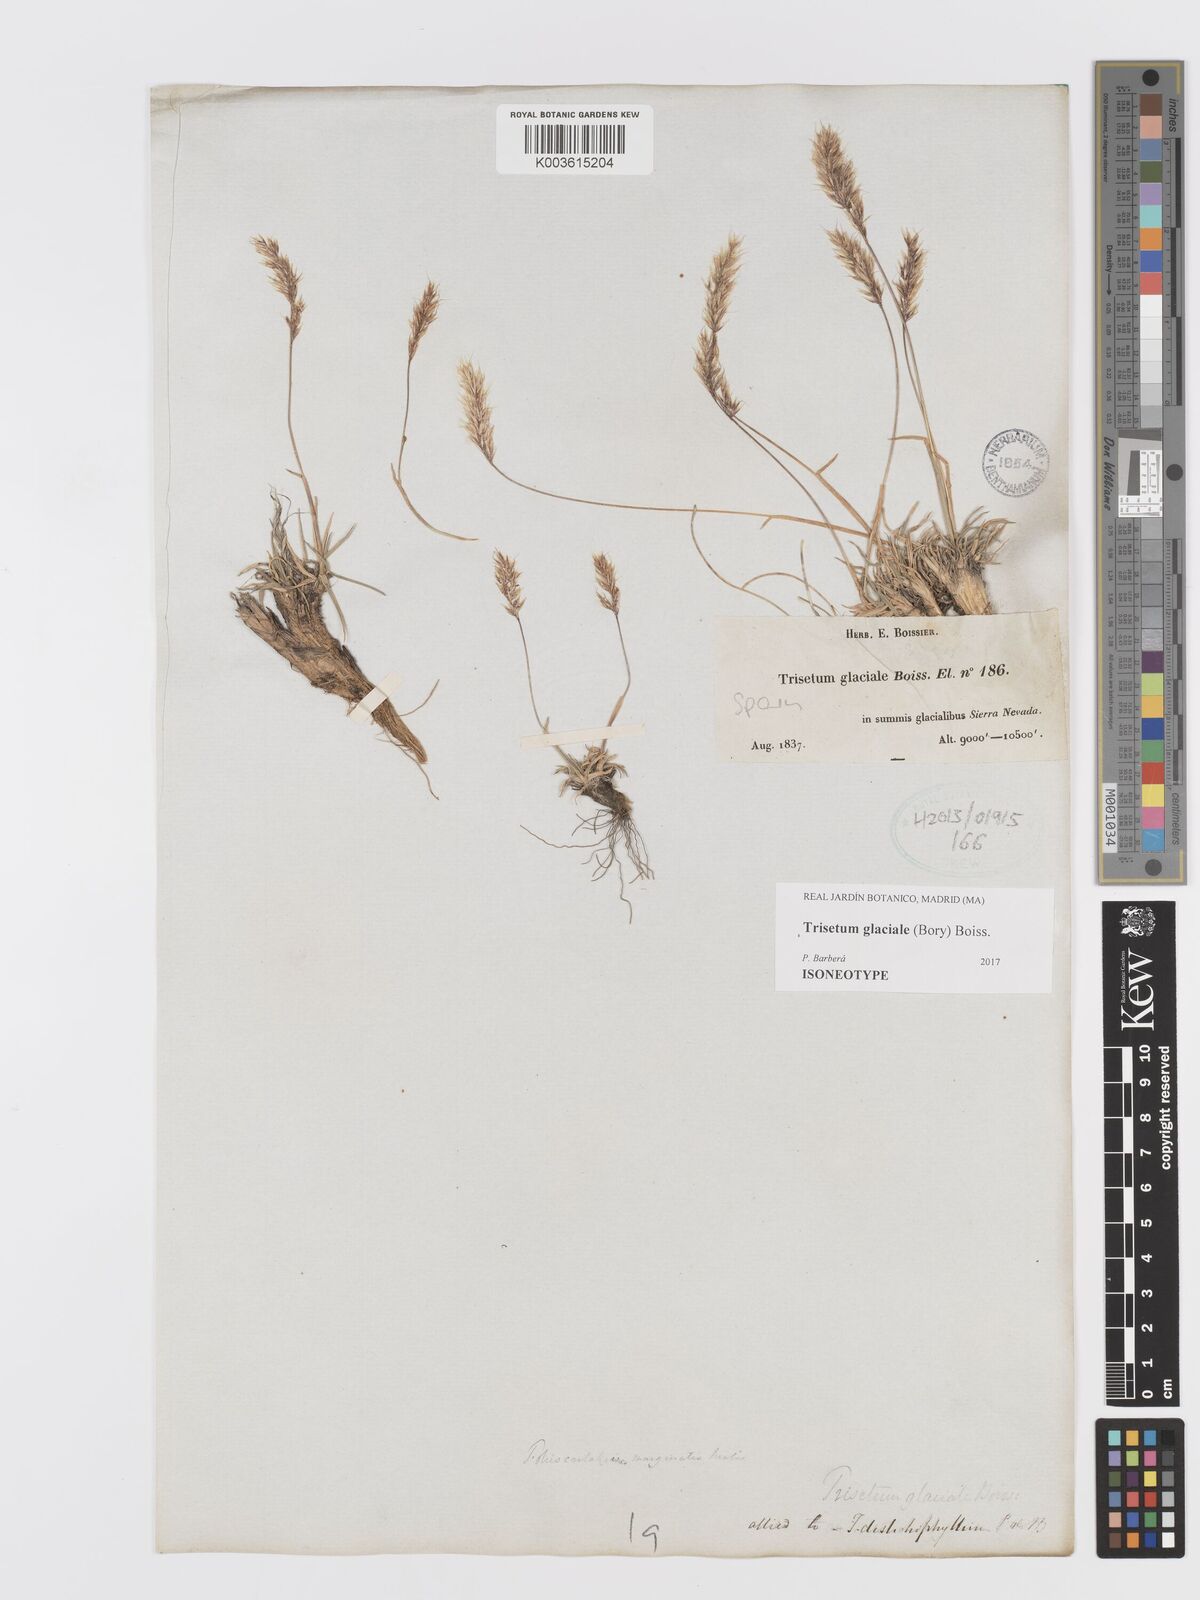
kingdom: Plantae
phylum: Tracheophyta
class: Liliopsida
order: Poales
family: Poaceae
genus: Acrospelion
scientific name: Acrospelion glaciale
